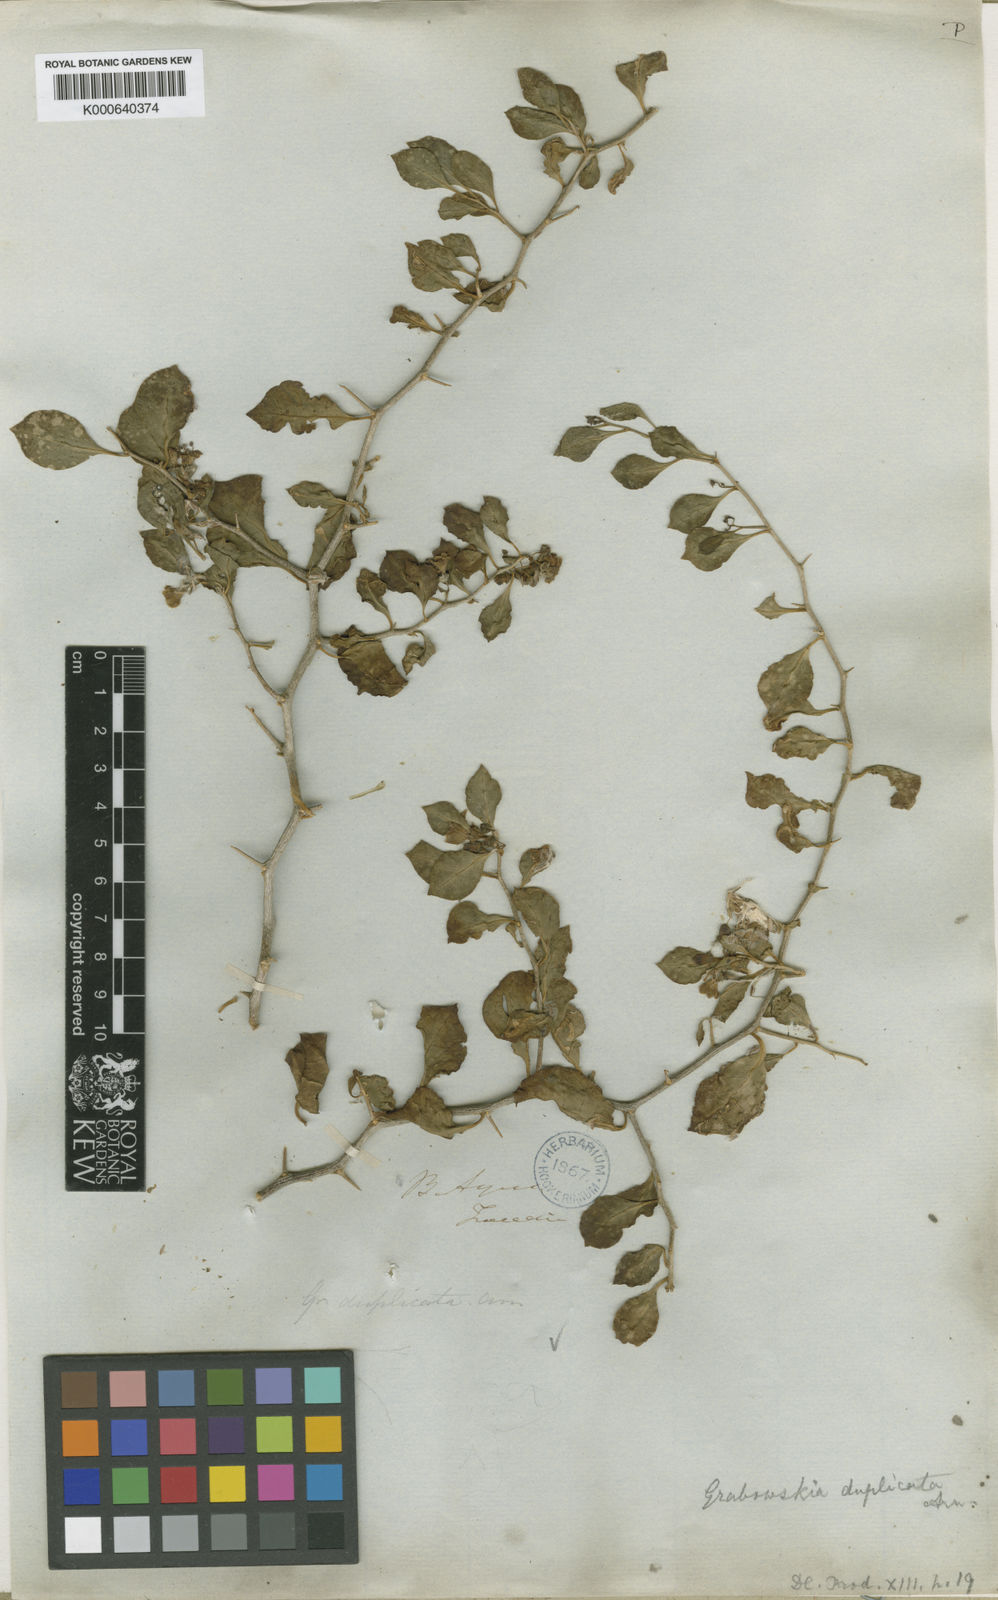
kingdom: Plantae
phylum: Tracheophyta
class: Magnoliopsida
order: Solanales
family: Solanaceae
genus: Lycium
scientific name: Lycium boerhaaviifolium
